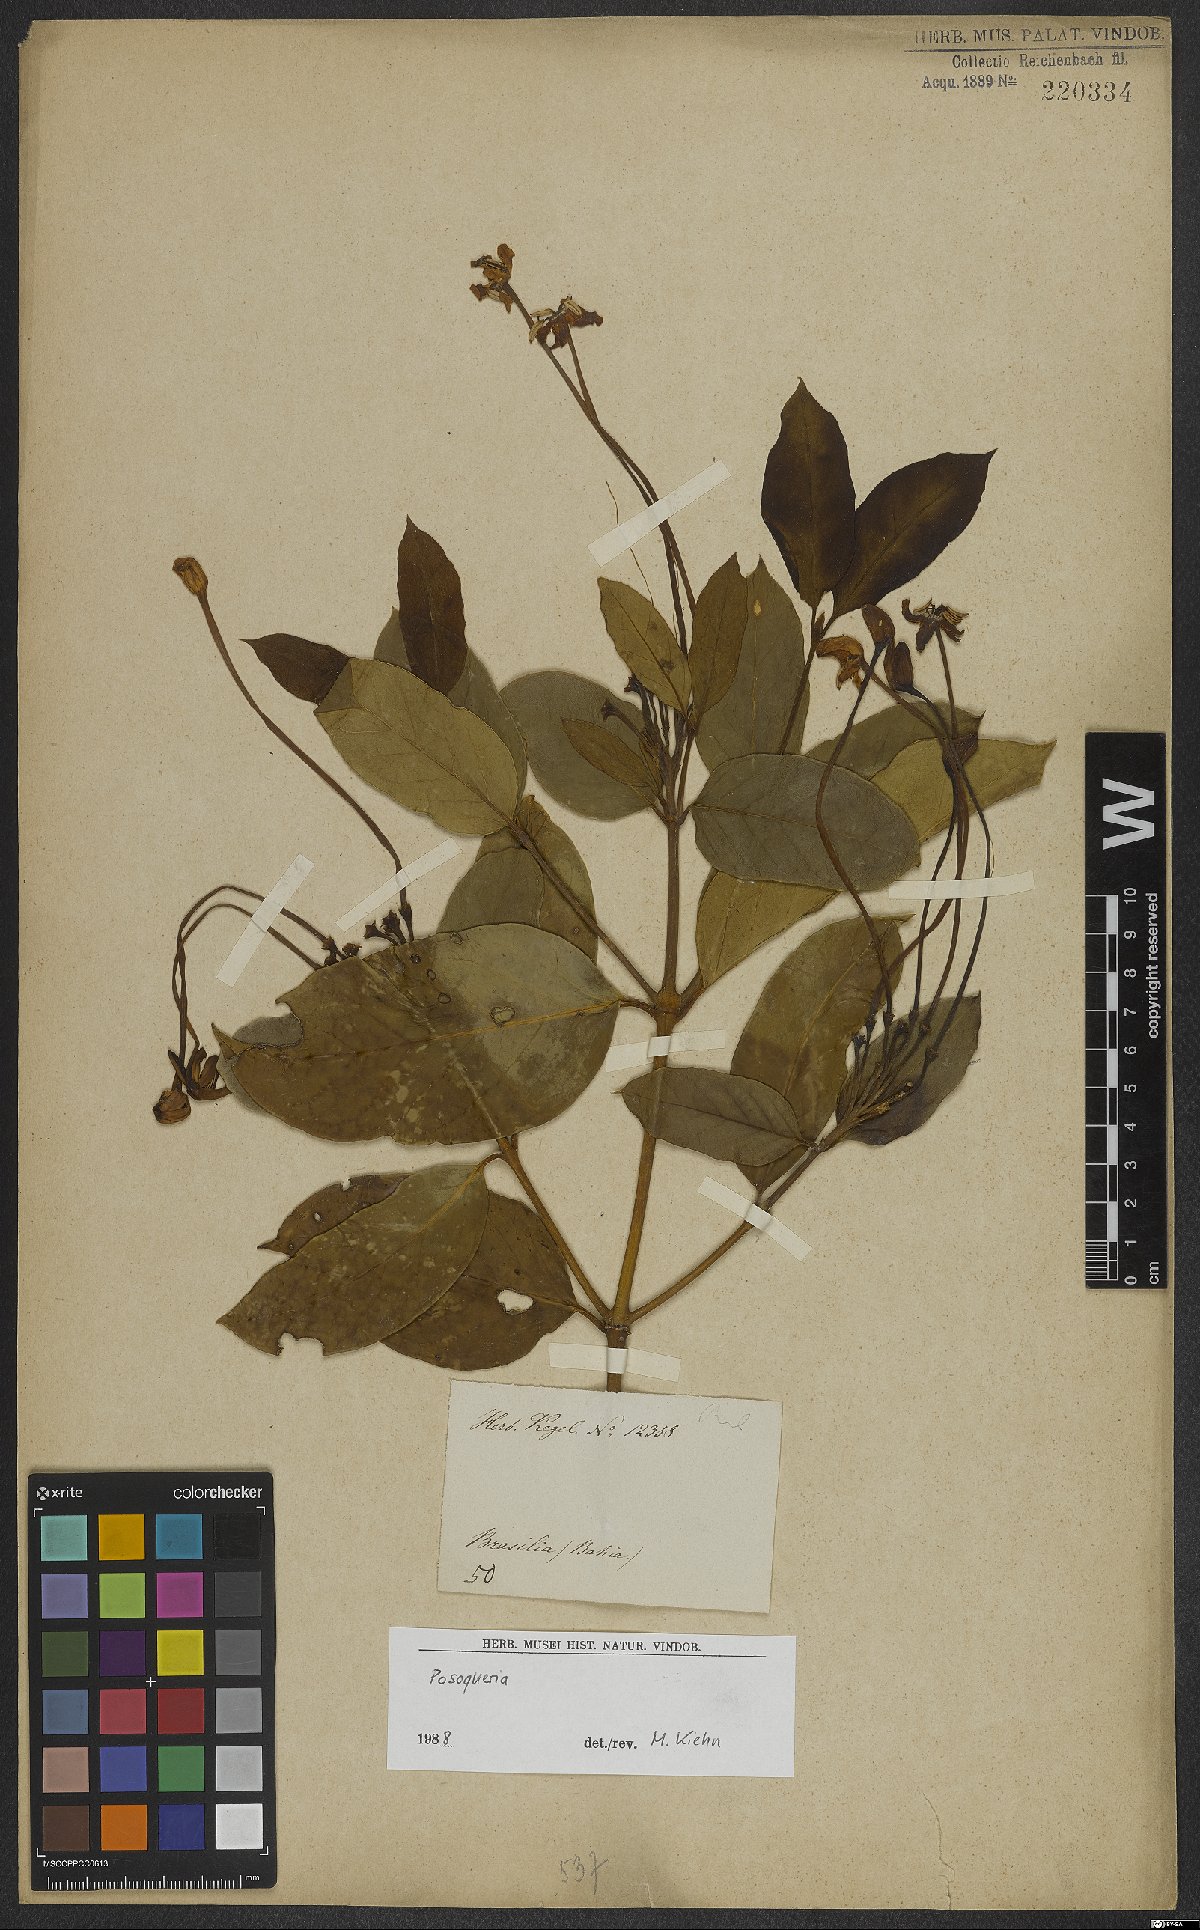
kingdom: Plantae
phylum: Tracheophyta
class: Magnoliopsida
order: Gentianales
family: Rubiaceae
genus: Posoqueria
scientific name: Posoqueria
